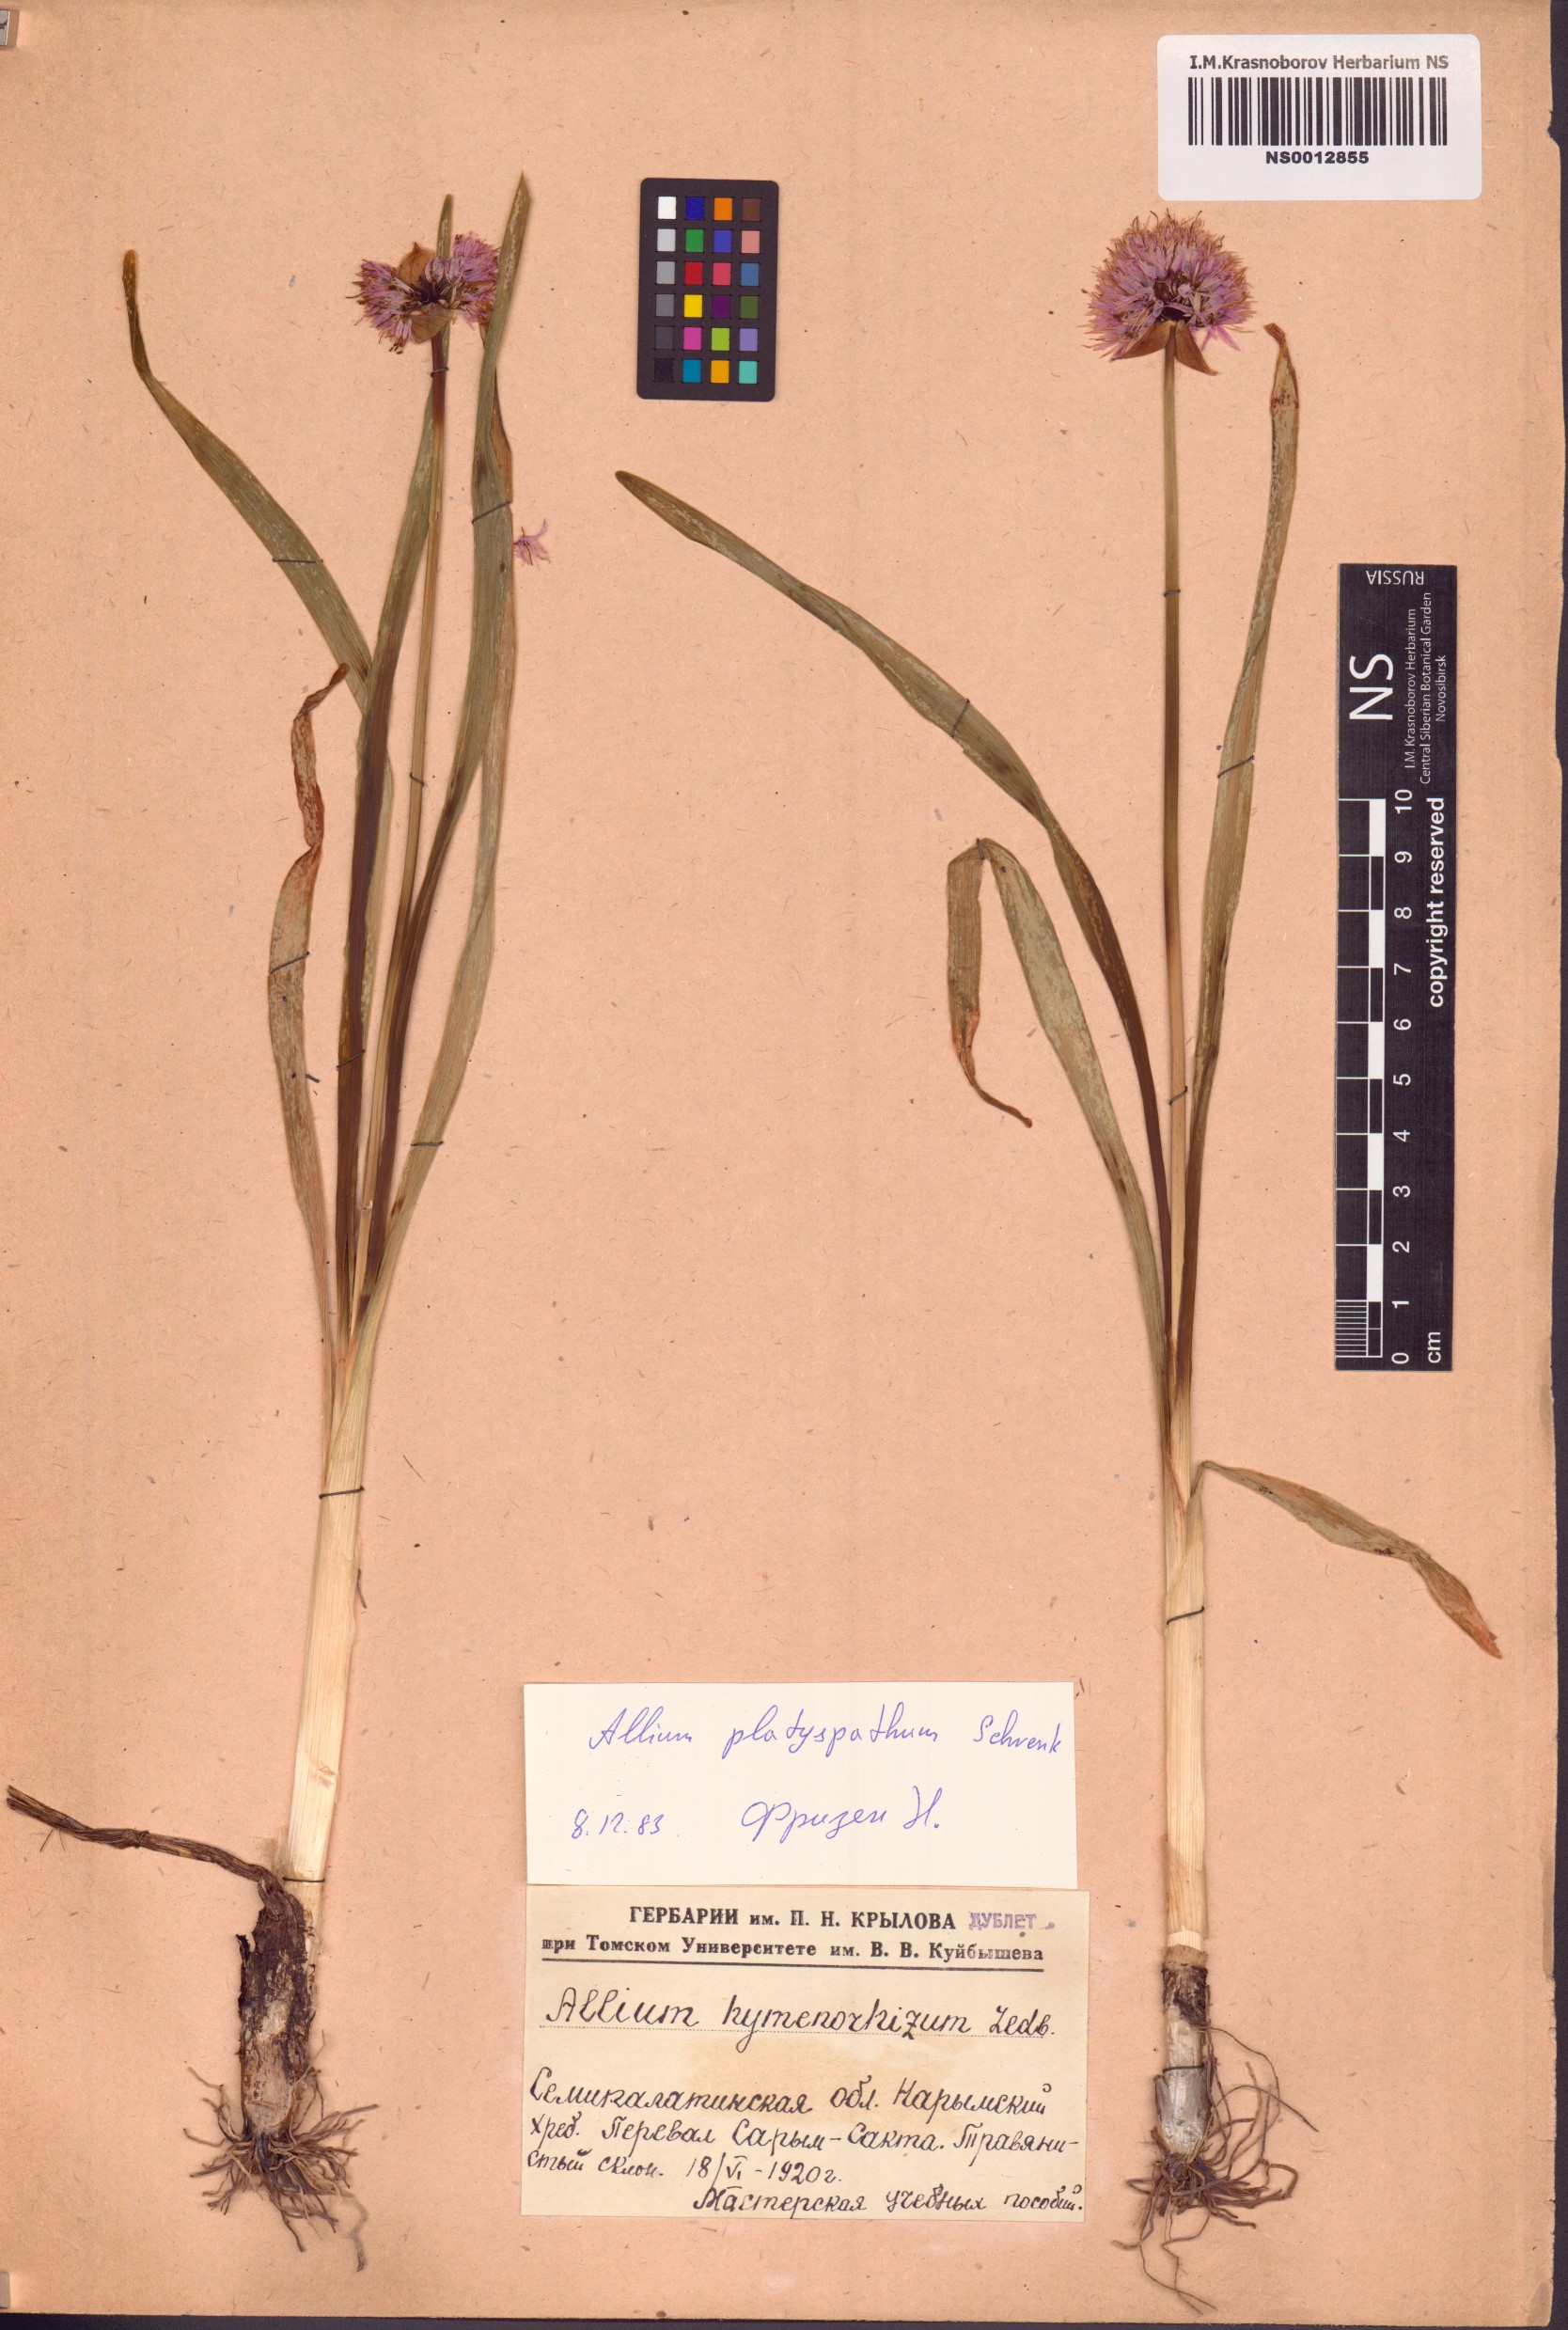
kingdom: Plantae
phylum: Tracheophyta
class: Liliopsida
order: Asparagales
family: Amaryllidaceae
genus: Allium
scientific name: Allium platyspathum
